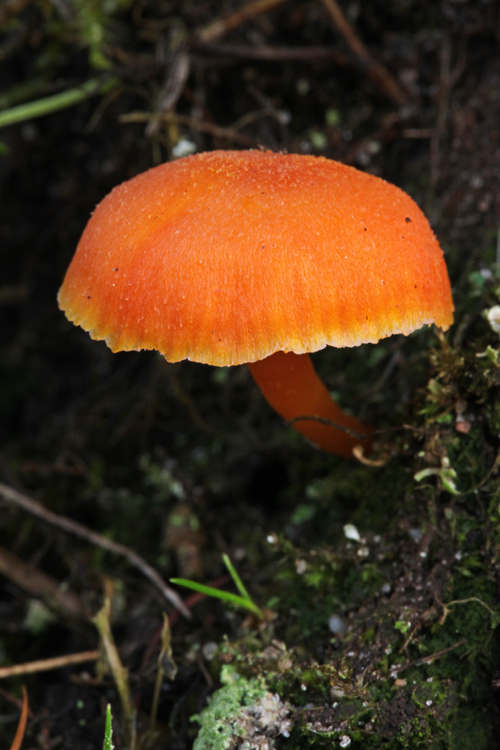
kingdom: Fungi
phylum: Basidiomycota
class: Agaricomycetes
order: Agaricales
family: Hygrophoraceae
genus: Hygrocybe
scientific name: Hygrocybe miniata
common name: mønje-vokshat
